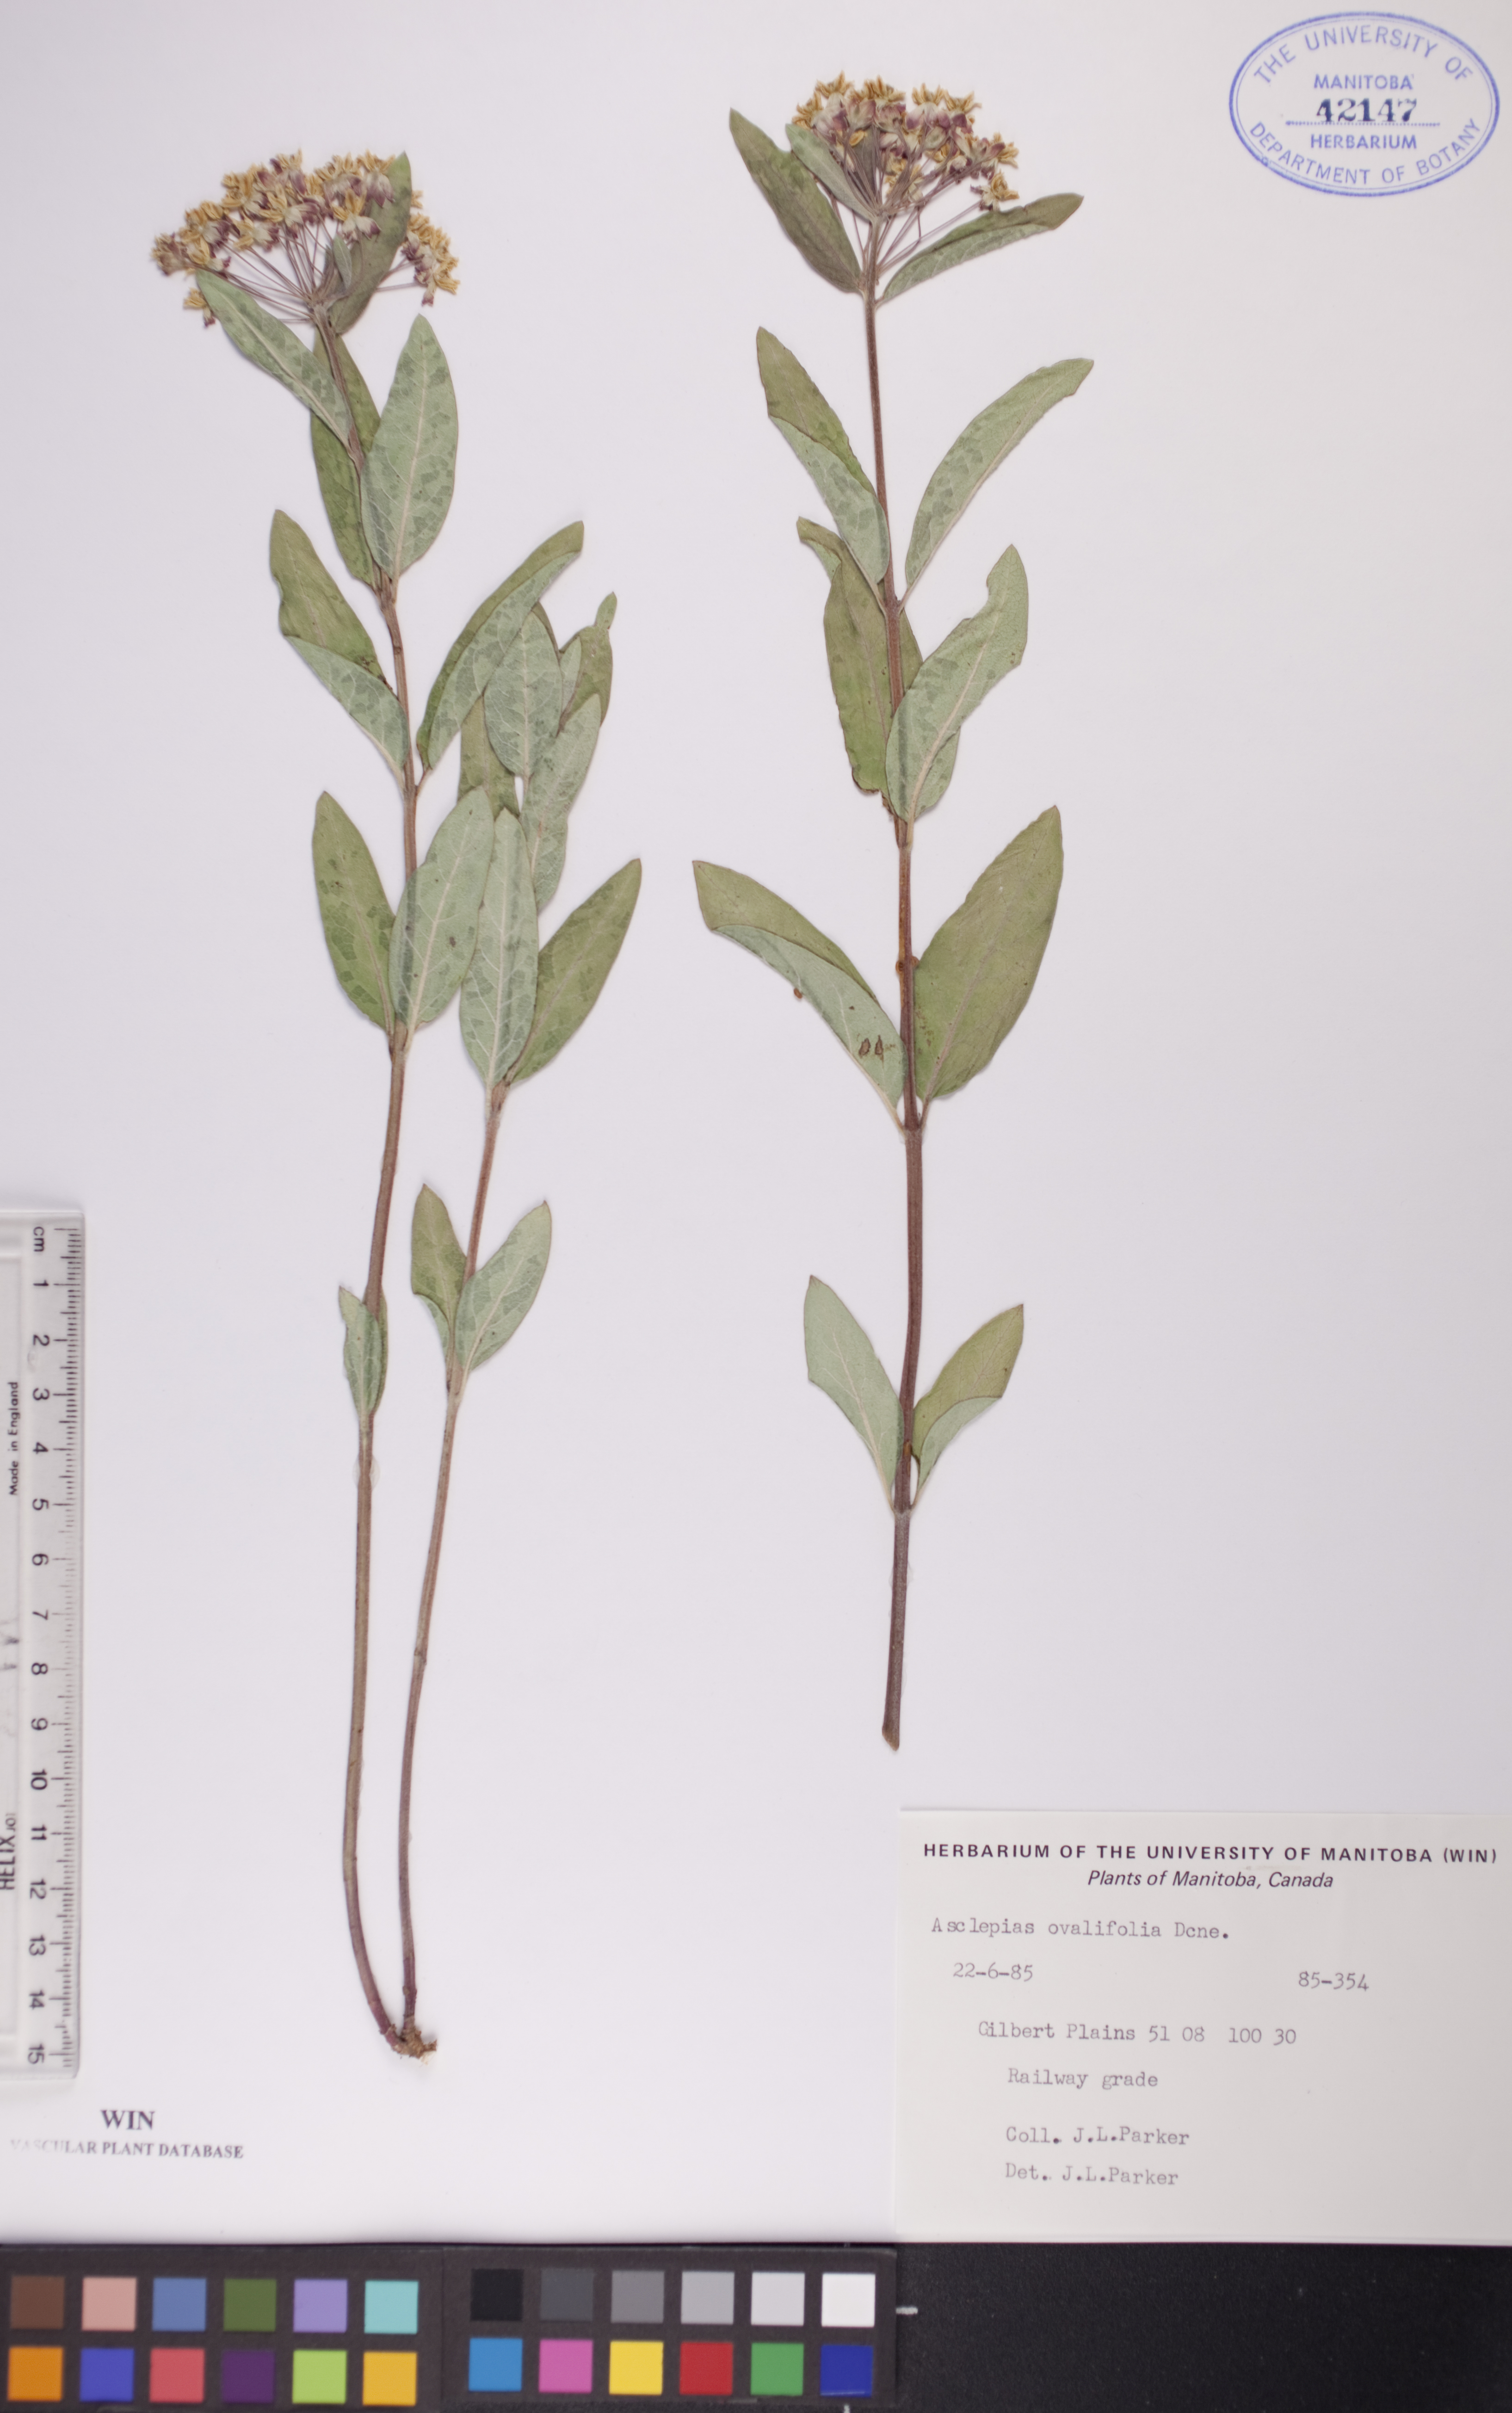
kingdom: Plantae
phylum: Tracheophyta
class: Magnoliopsida
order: Gentianales
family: Apocynaceae
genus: Asclepias
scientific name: Asclepias ovalifolia
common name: Dwarf milkweed
